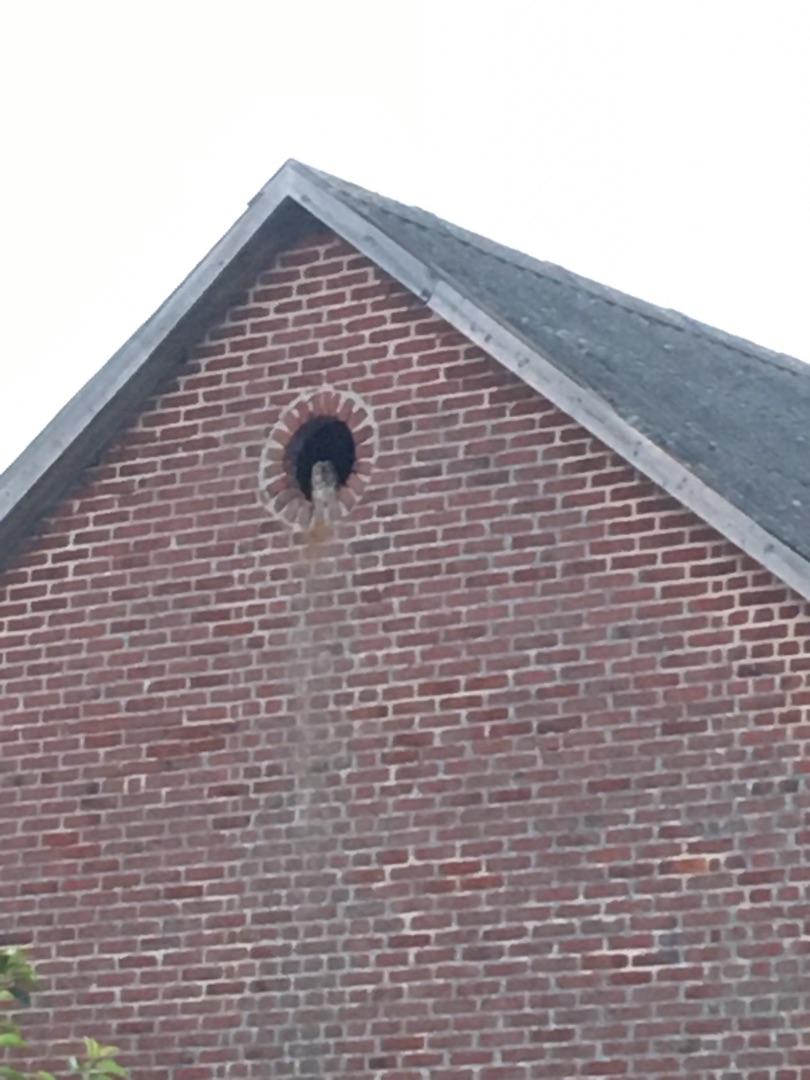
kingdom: Animalia
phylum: Chordata
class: Aves
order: Strigiformes
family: Strigidae
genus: Strix
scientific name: Strix aluco
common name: Natugle
